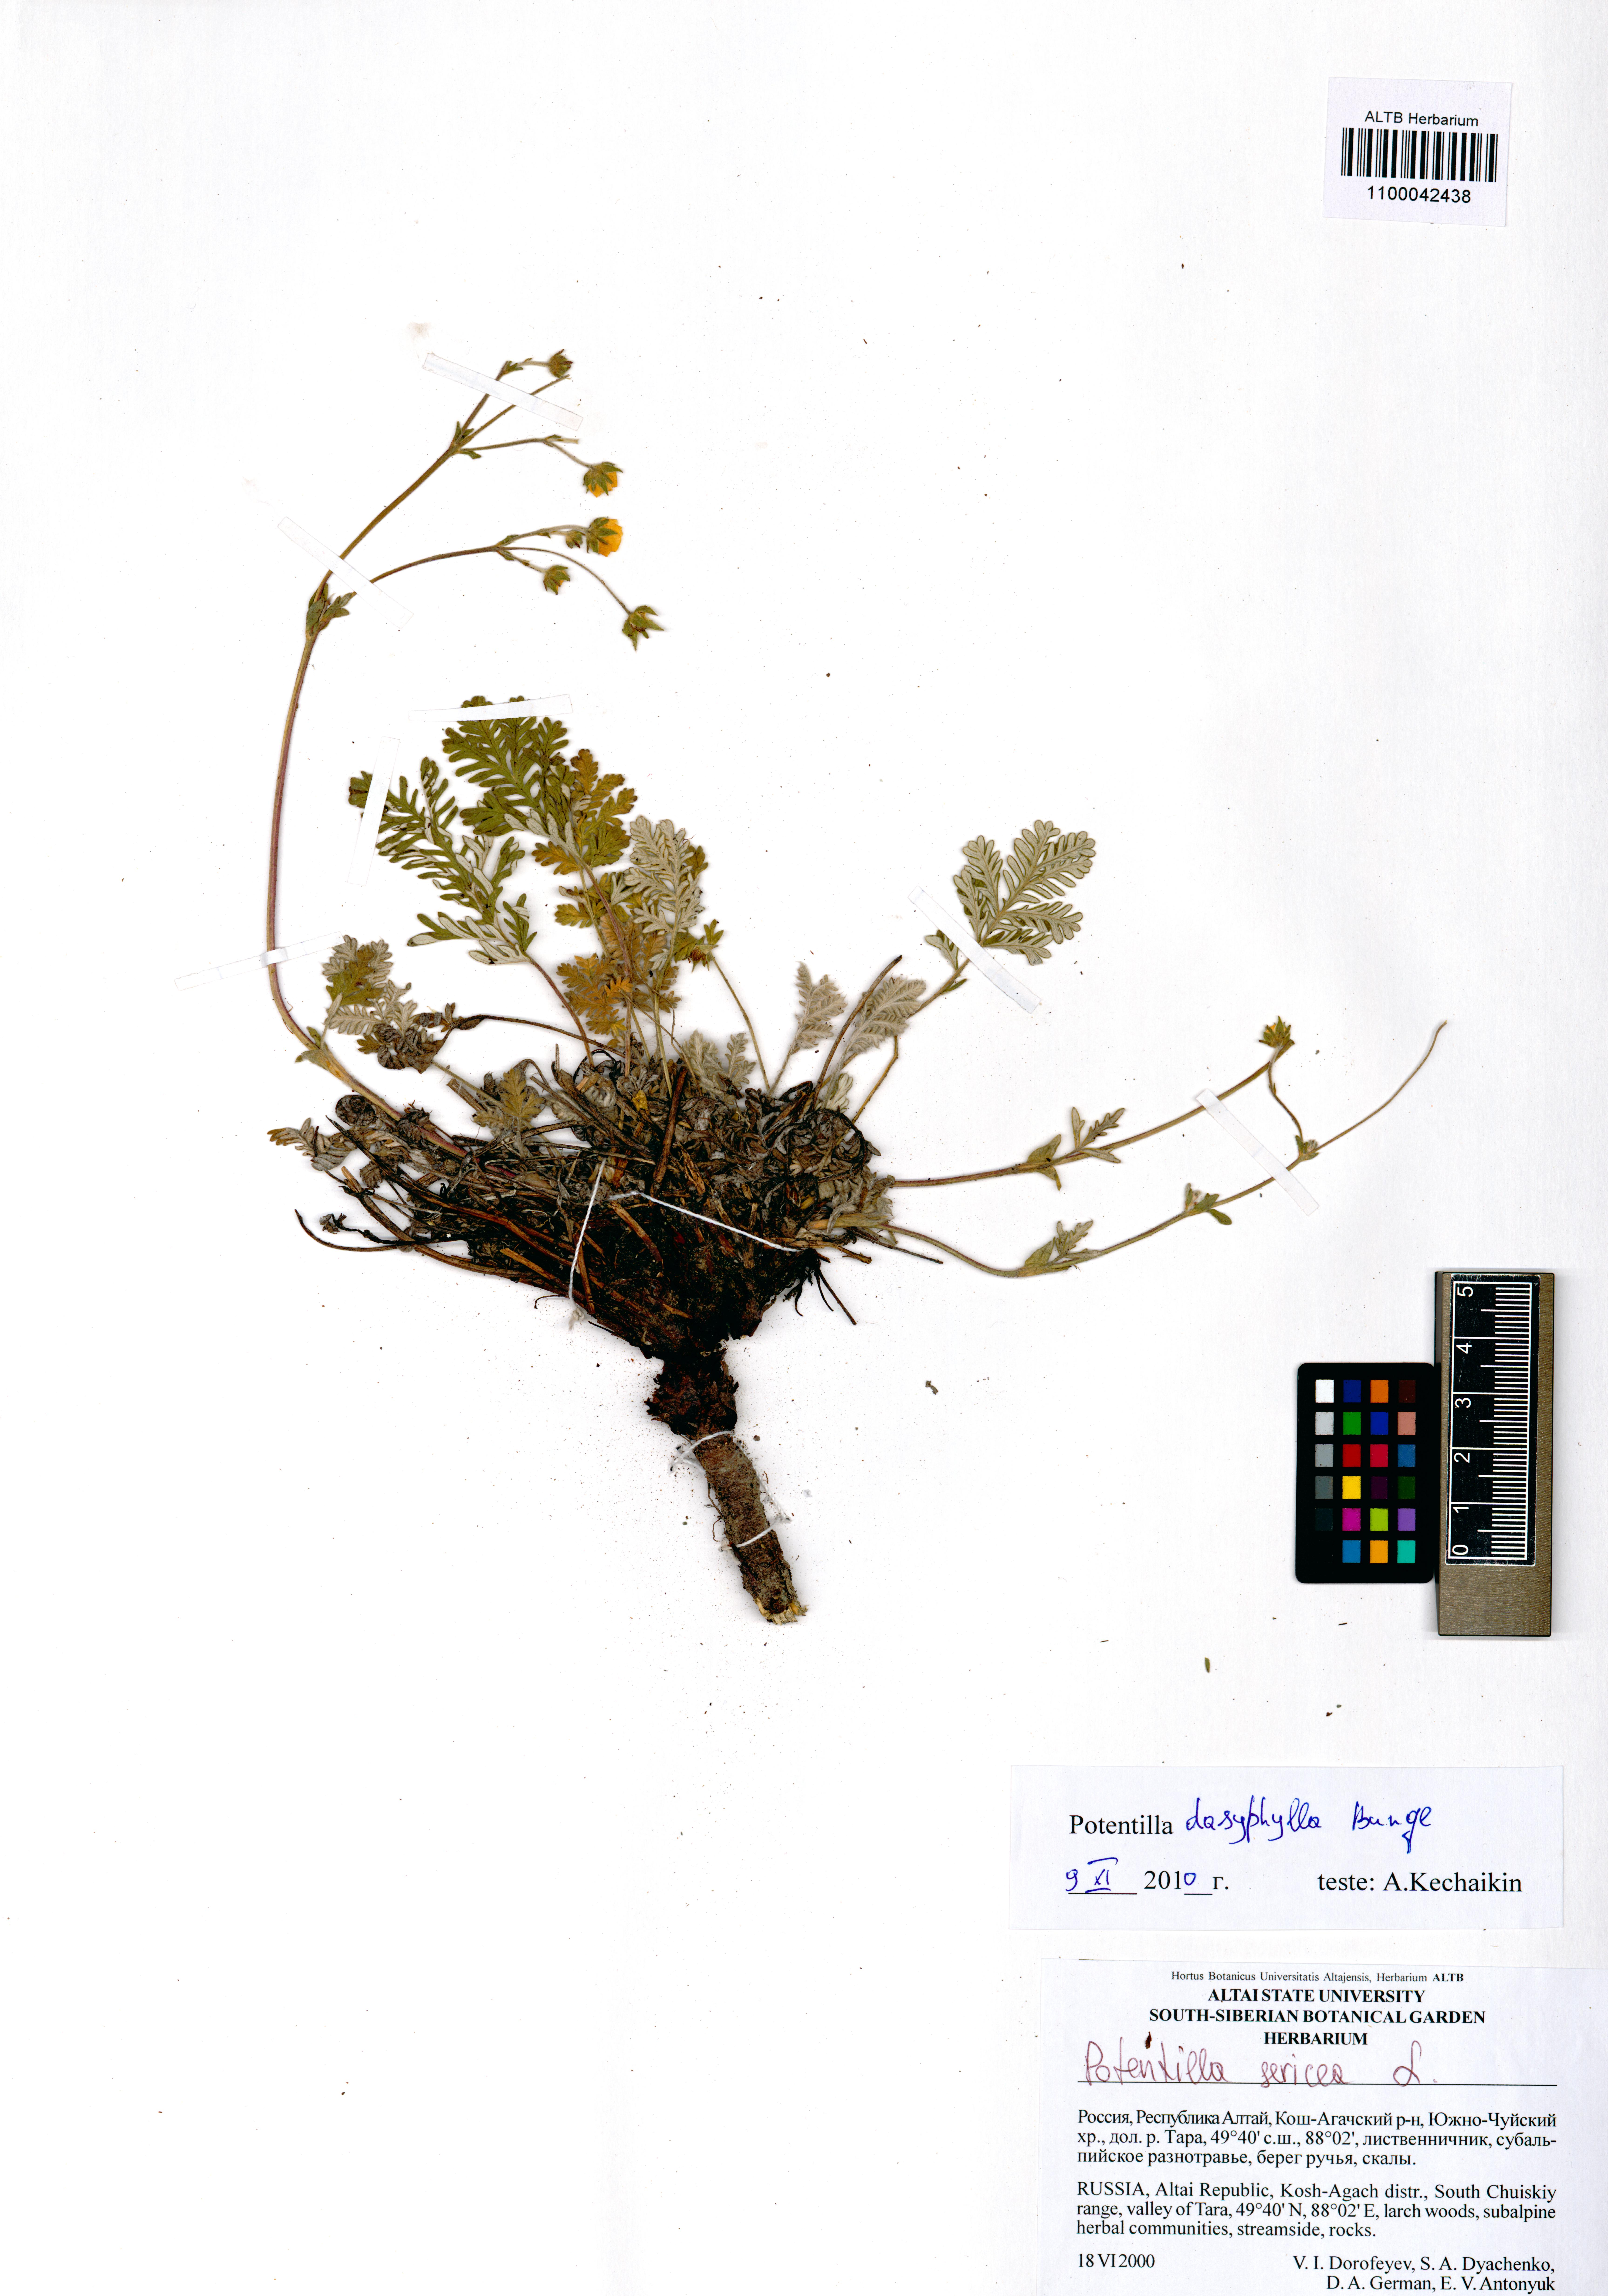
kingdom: Plantae
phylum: Tracheophyta
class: Magnoliopsida
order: Rosales
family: Rosaceae
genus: Potentilla
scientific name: Potentilla sericea
